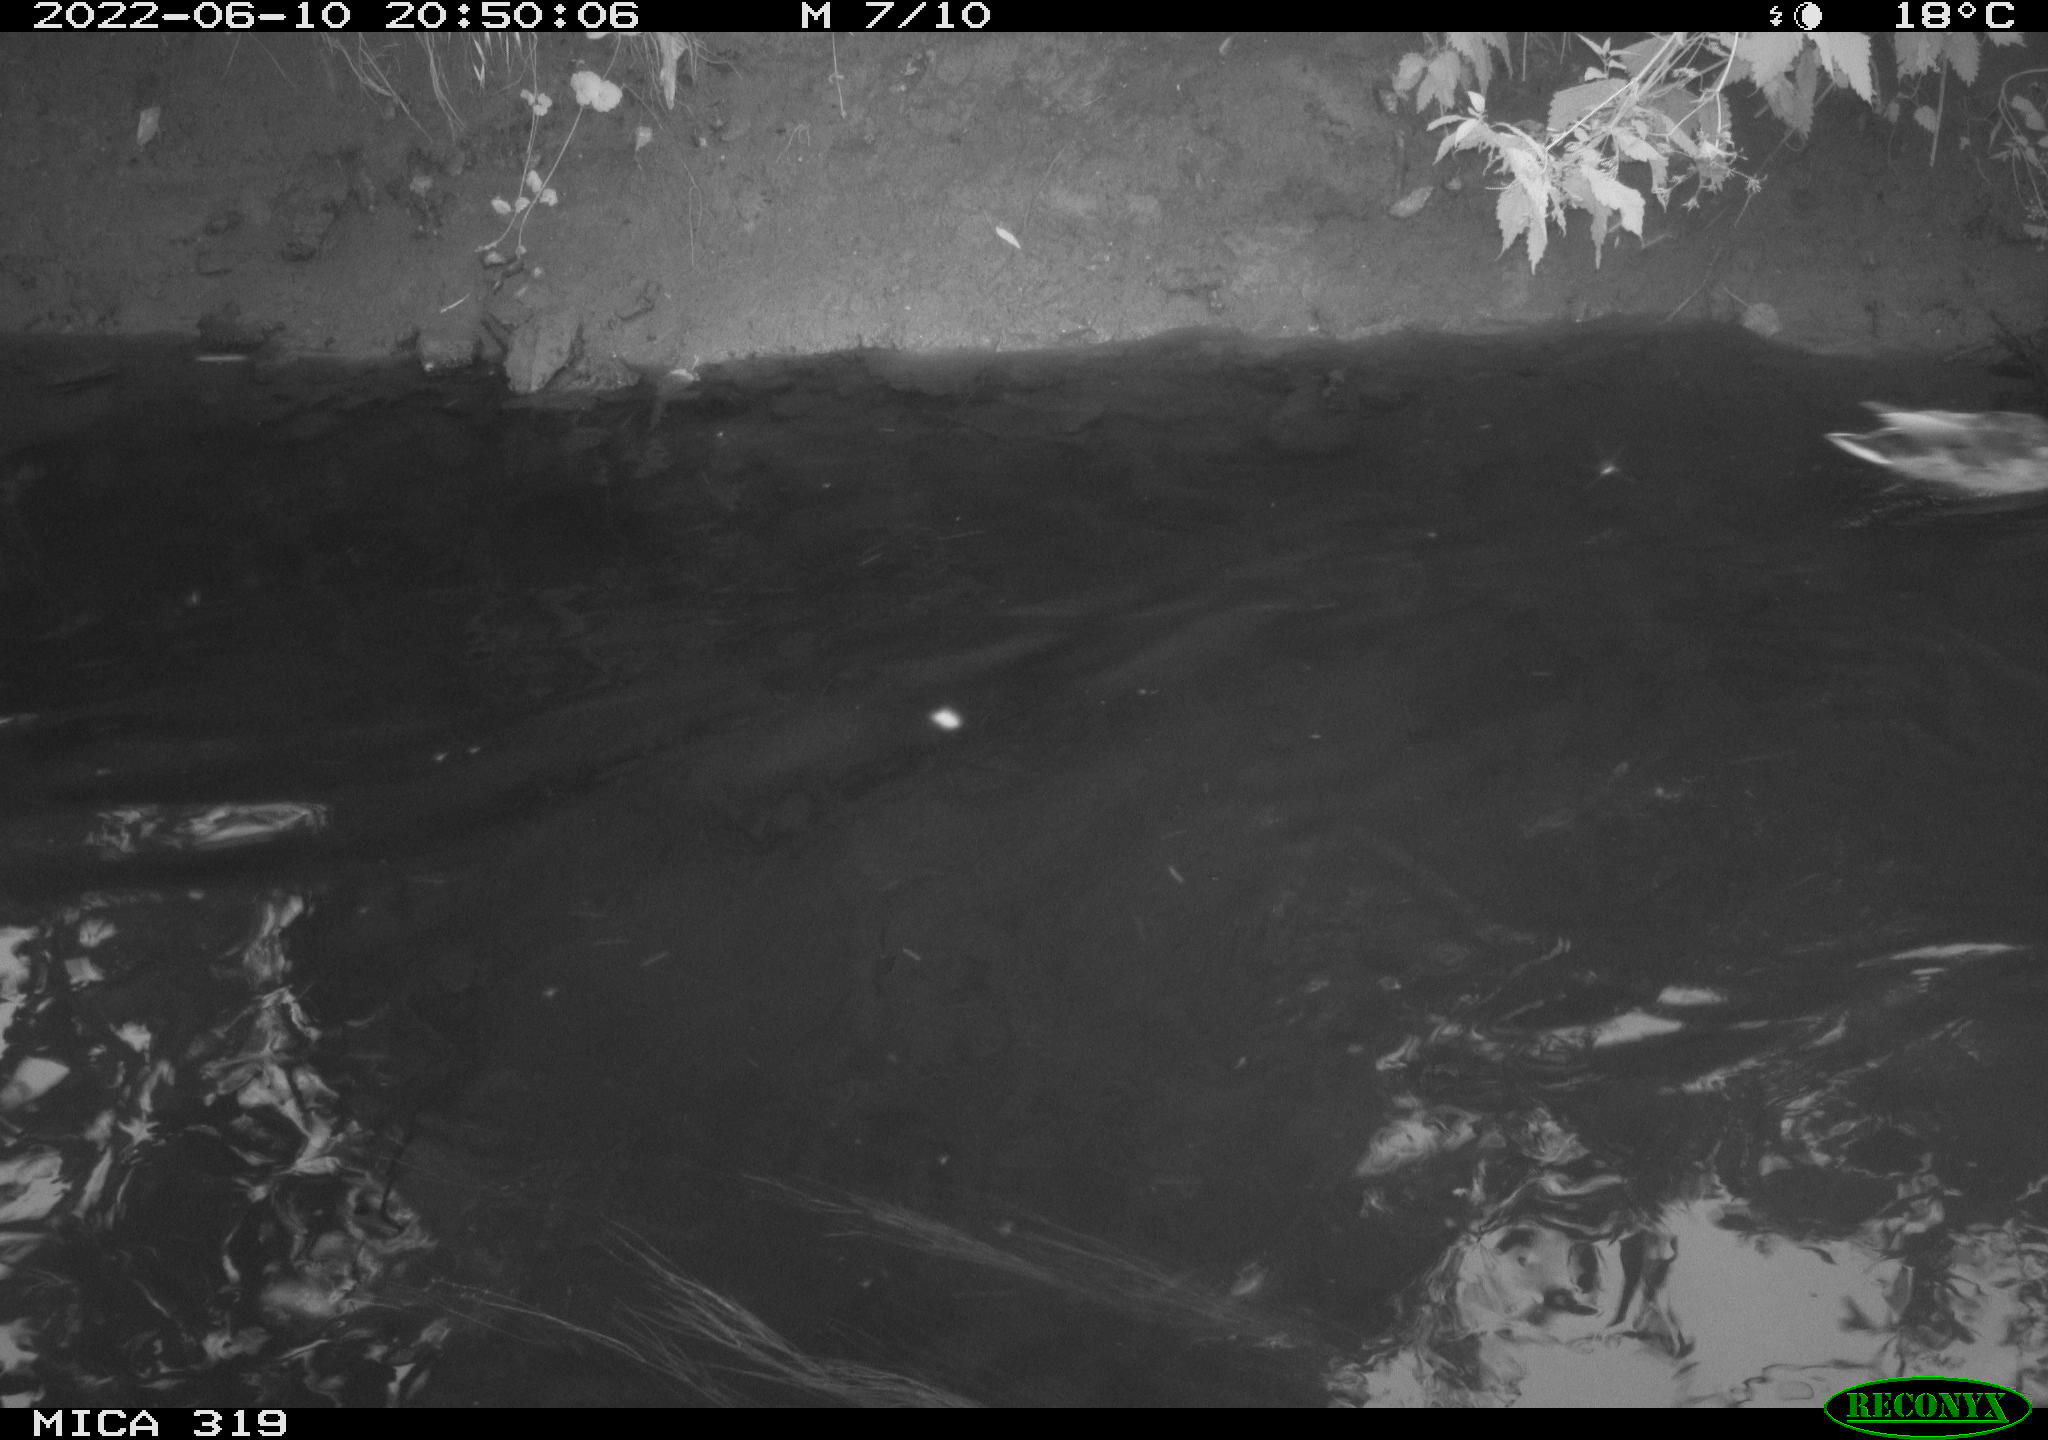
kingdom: Animalia
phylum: Chordata
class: Aves
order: Anseriformes
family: Anatidae
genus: Anas
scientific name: Anas
